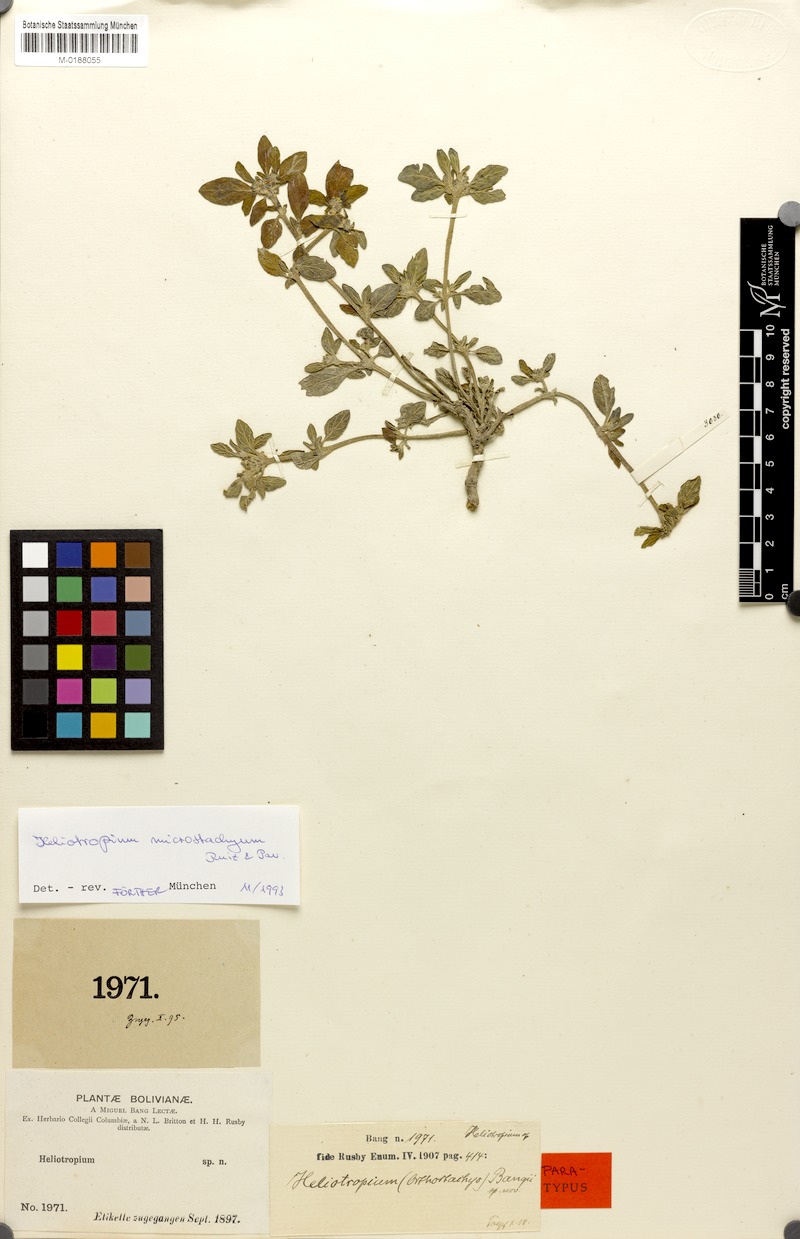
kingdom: Plantae
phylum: Tracheophyta
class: Magnoliopsida
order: Boraginales
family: Heliotropiaceae
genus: Heliotropium
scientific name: Heliotropium microstachyum
